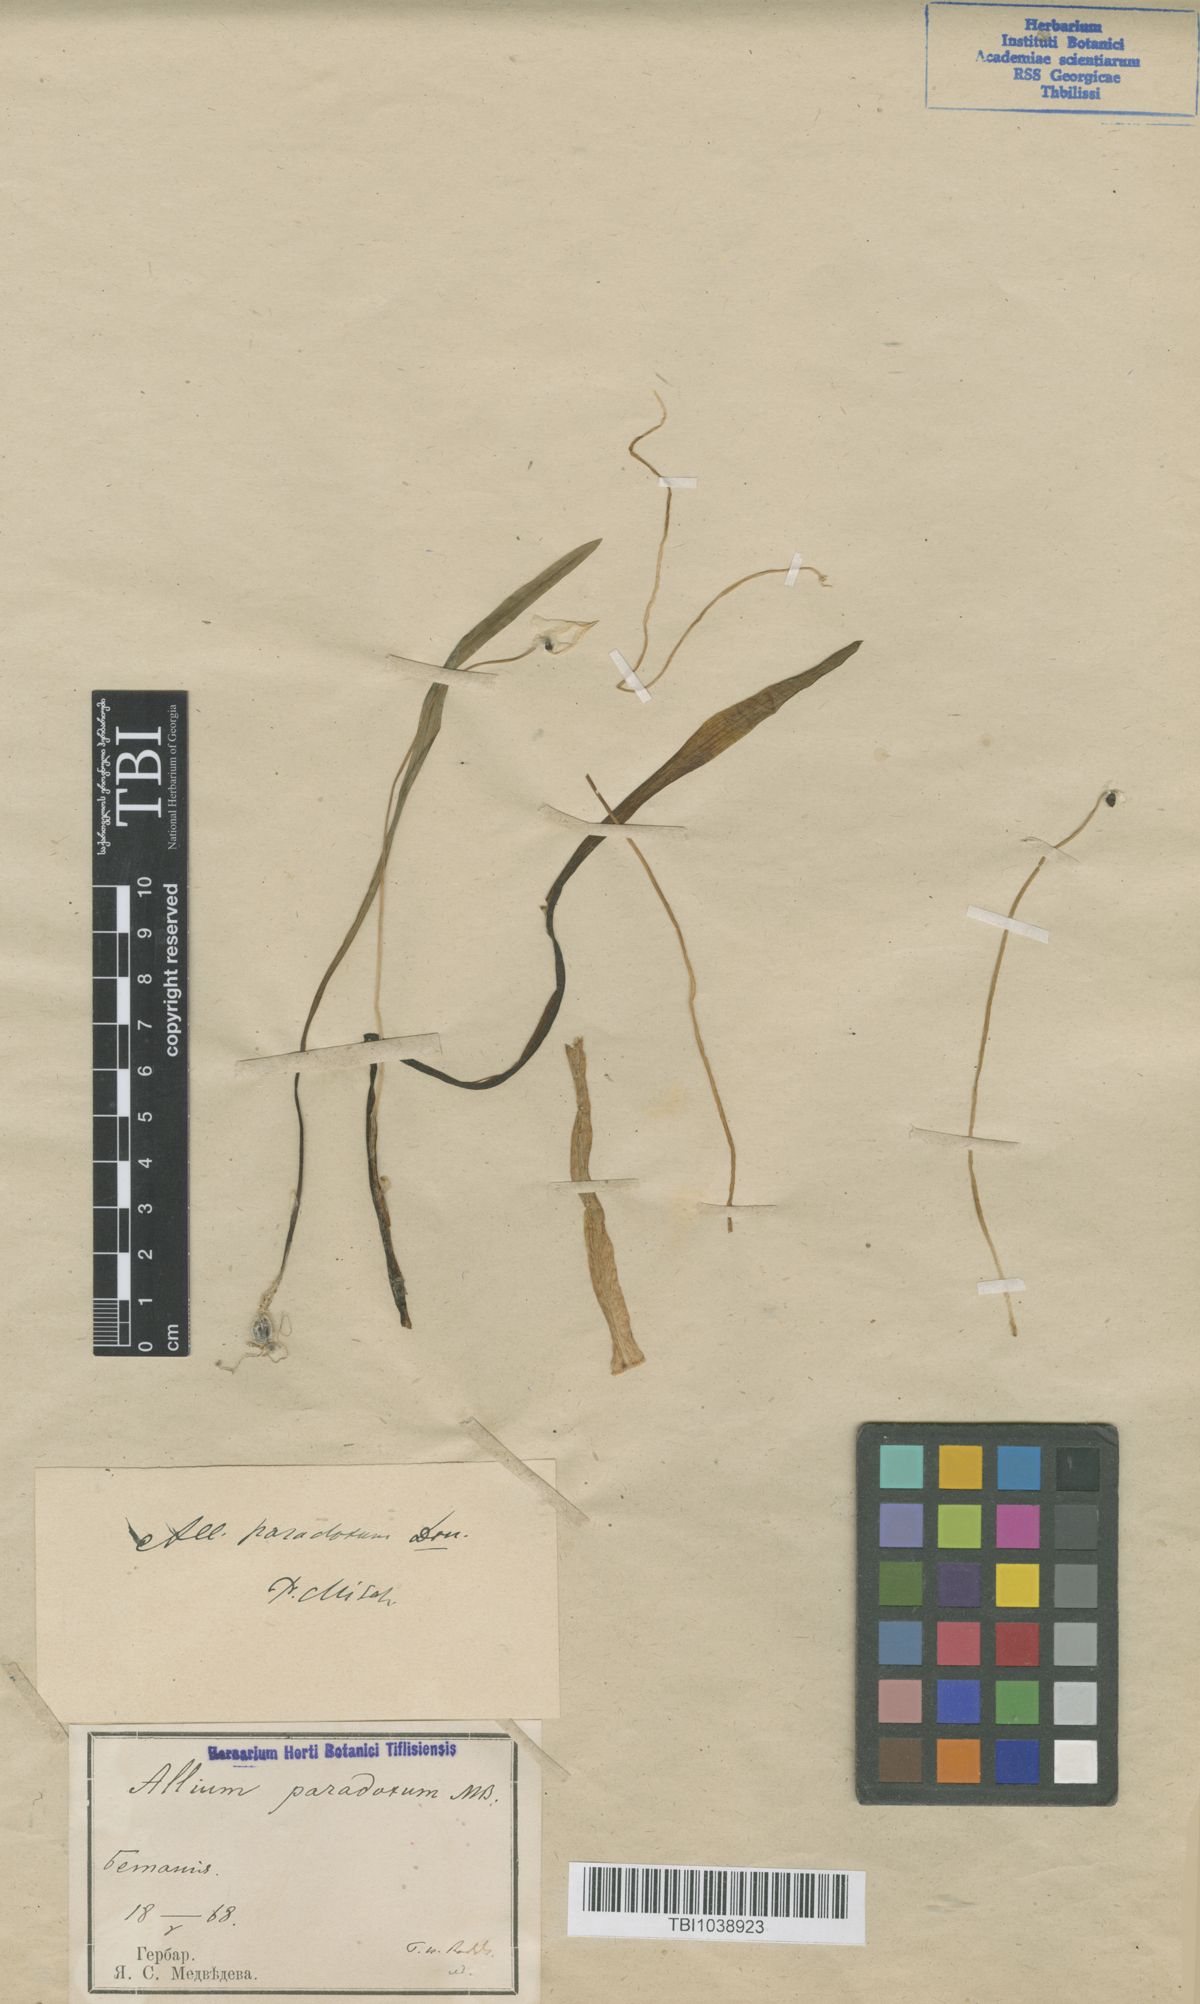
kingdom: Plantae
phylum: Tracheophyta
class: Liliopsida
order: Asparagales
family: Amaryllidaceae
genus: Allium
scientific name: Allium paradoxum
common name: Few-flowered garlic
